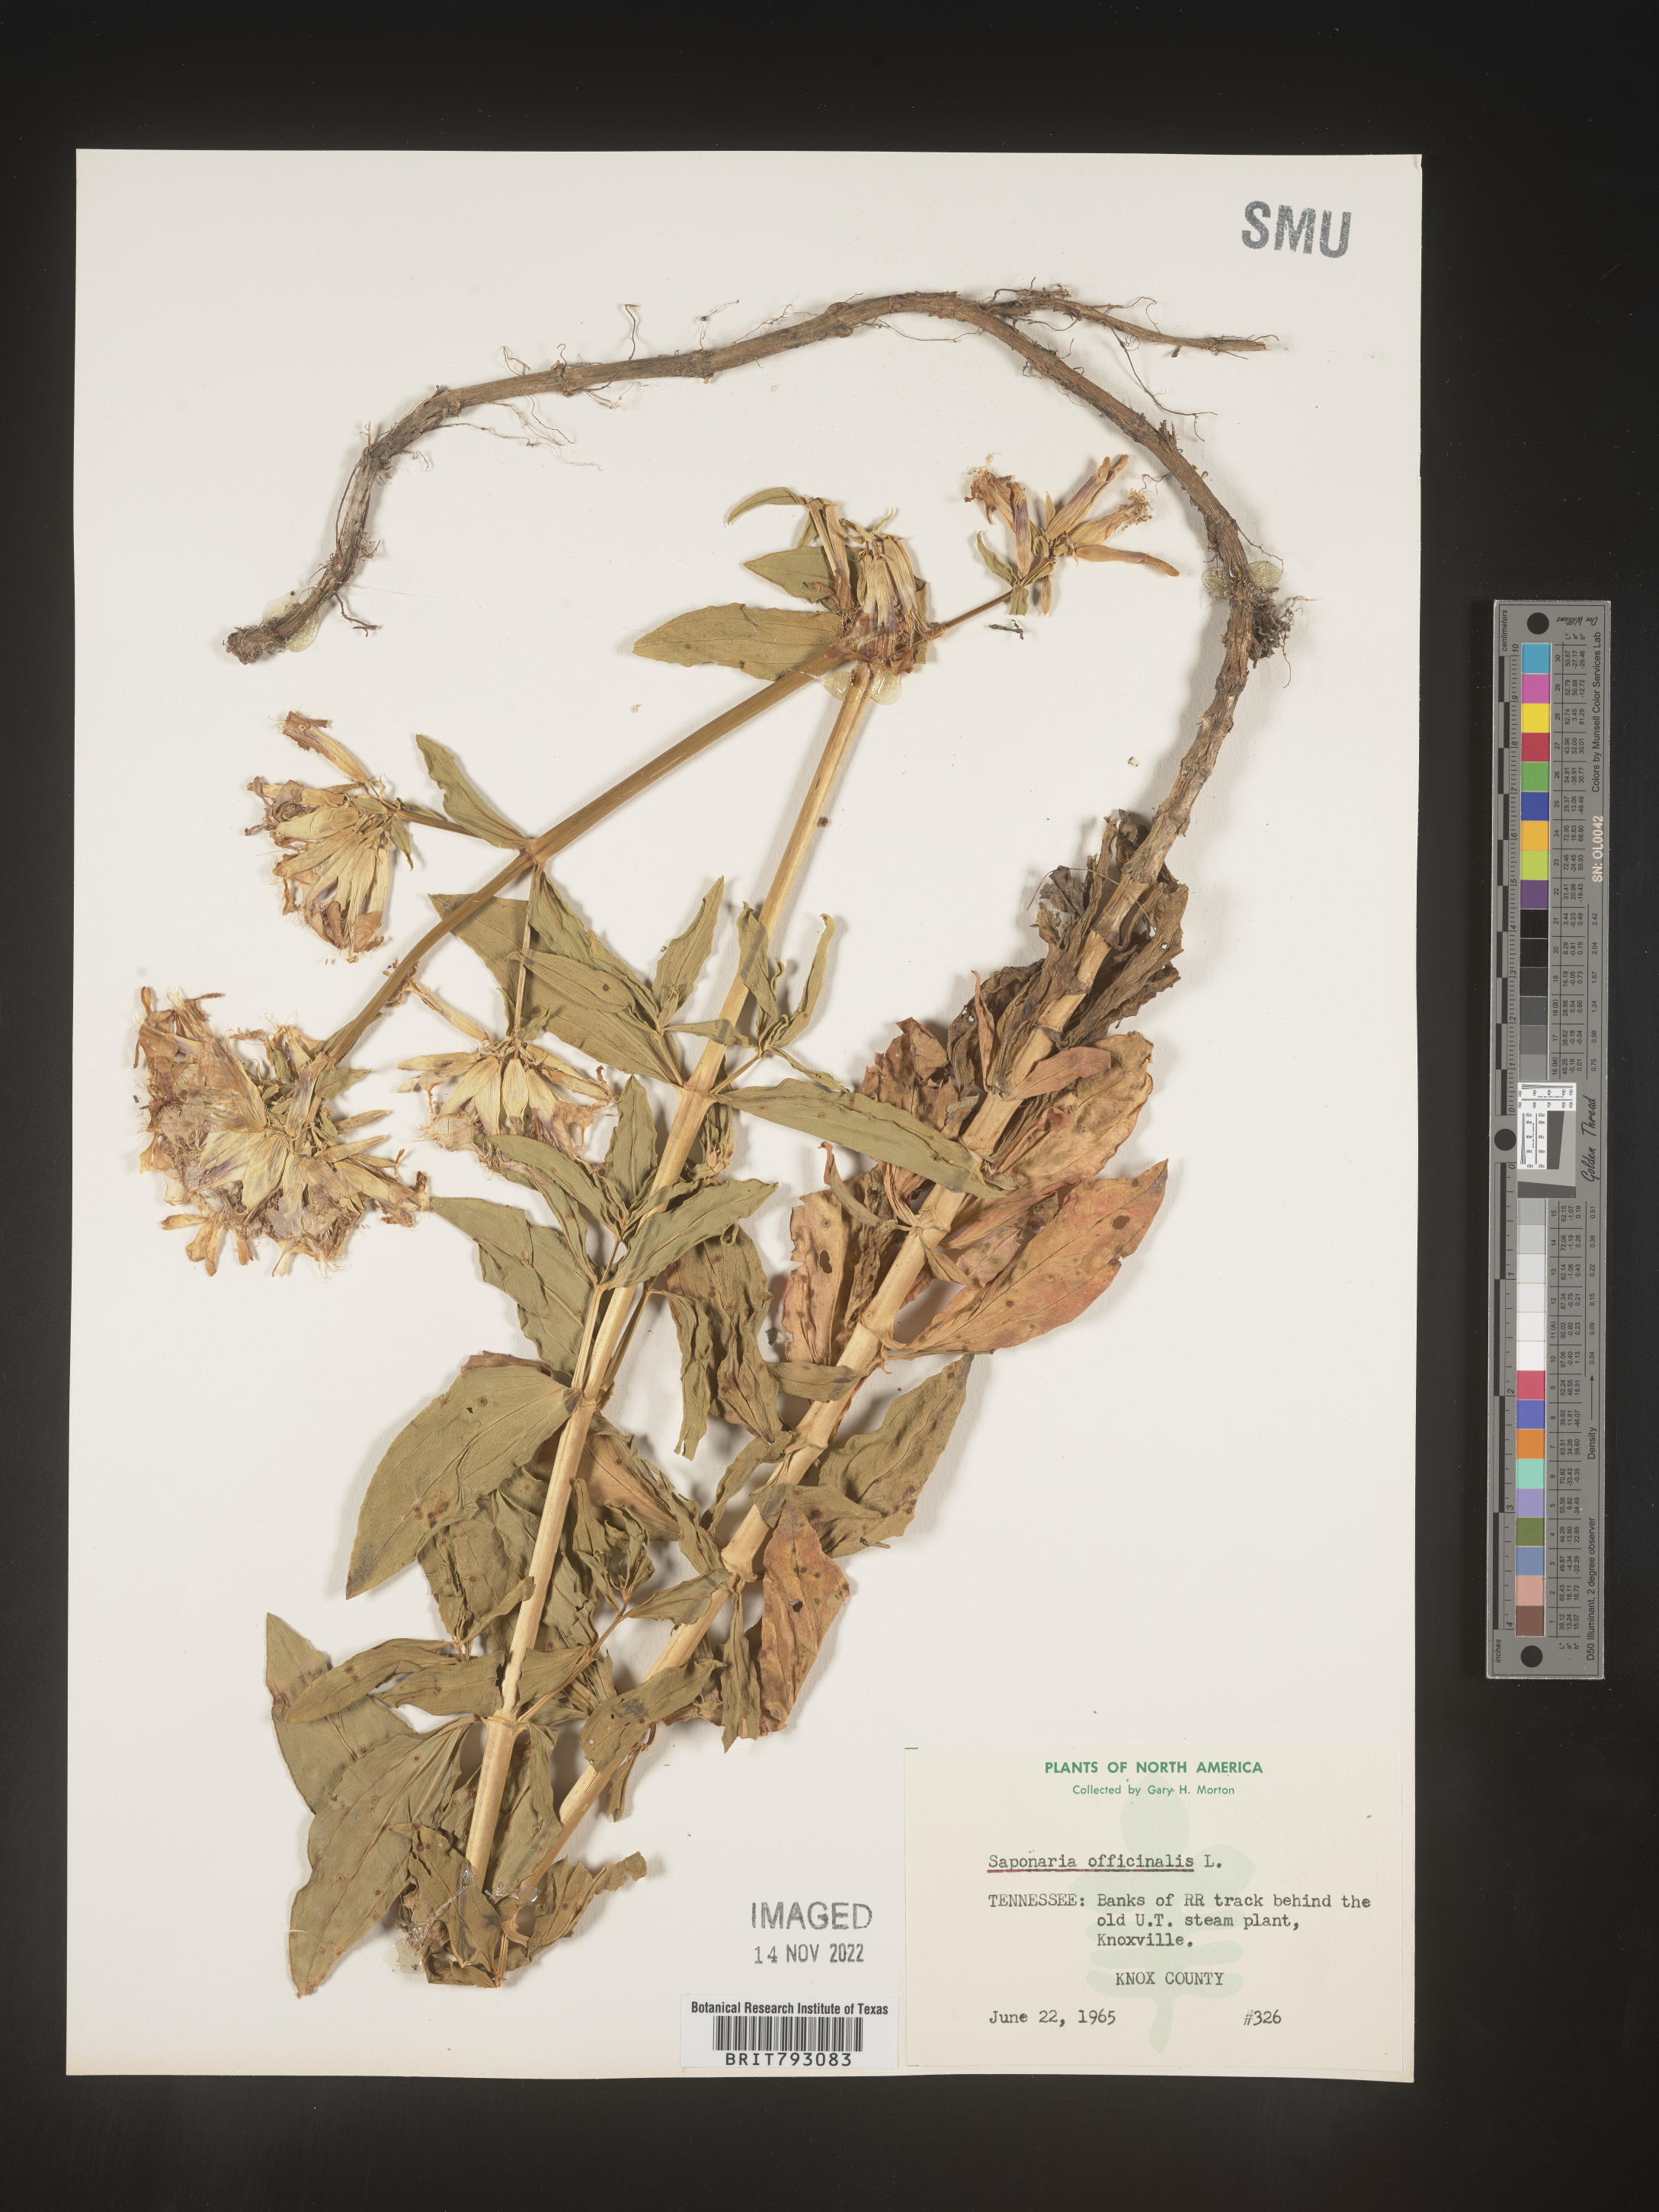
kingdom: Plantae
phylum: Tracheophyta
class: Magnoliopsida
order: Caryophyllales
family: Caryophyllaceae
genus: Saponaria
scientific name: Saponaria officinalis
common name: Soapwort
